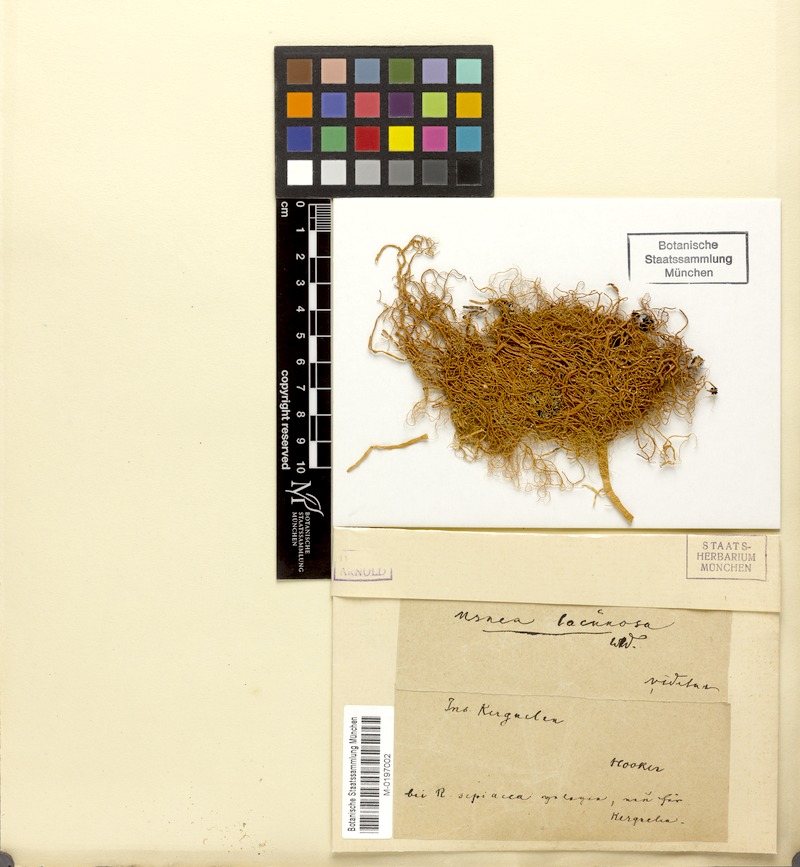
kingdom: Fungi
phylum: Ascomycota
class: Lecanoromycetes
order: Lecanorales
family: Parmeliaceae
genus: Usnea
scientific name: Usnea cavernosa
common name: Pitted beard lichen
